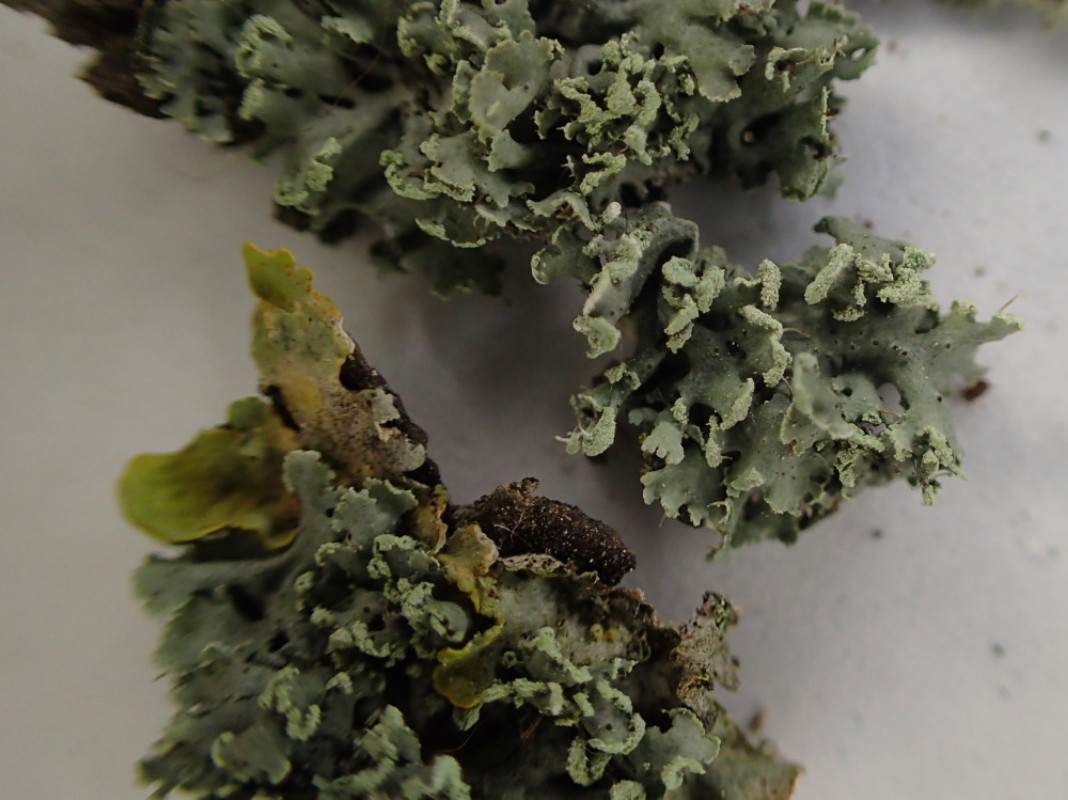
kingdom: Fungi
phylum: Ascomycota
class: Lecanoromycetes
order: Caliciales
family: Physciaceae
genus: Physcia
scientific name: Physcia tenella
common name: spæd rosetlav
